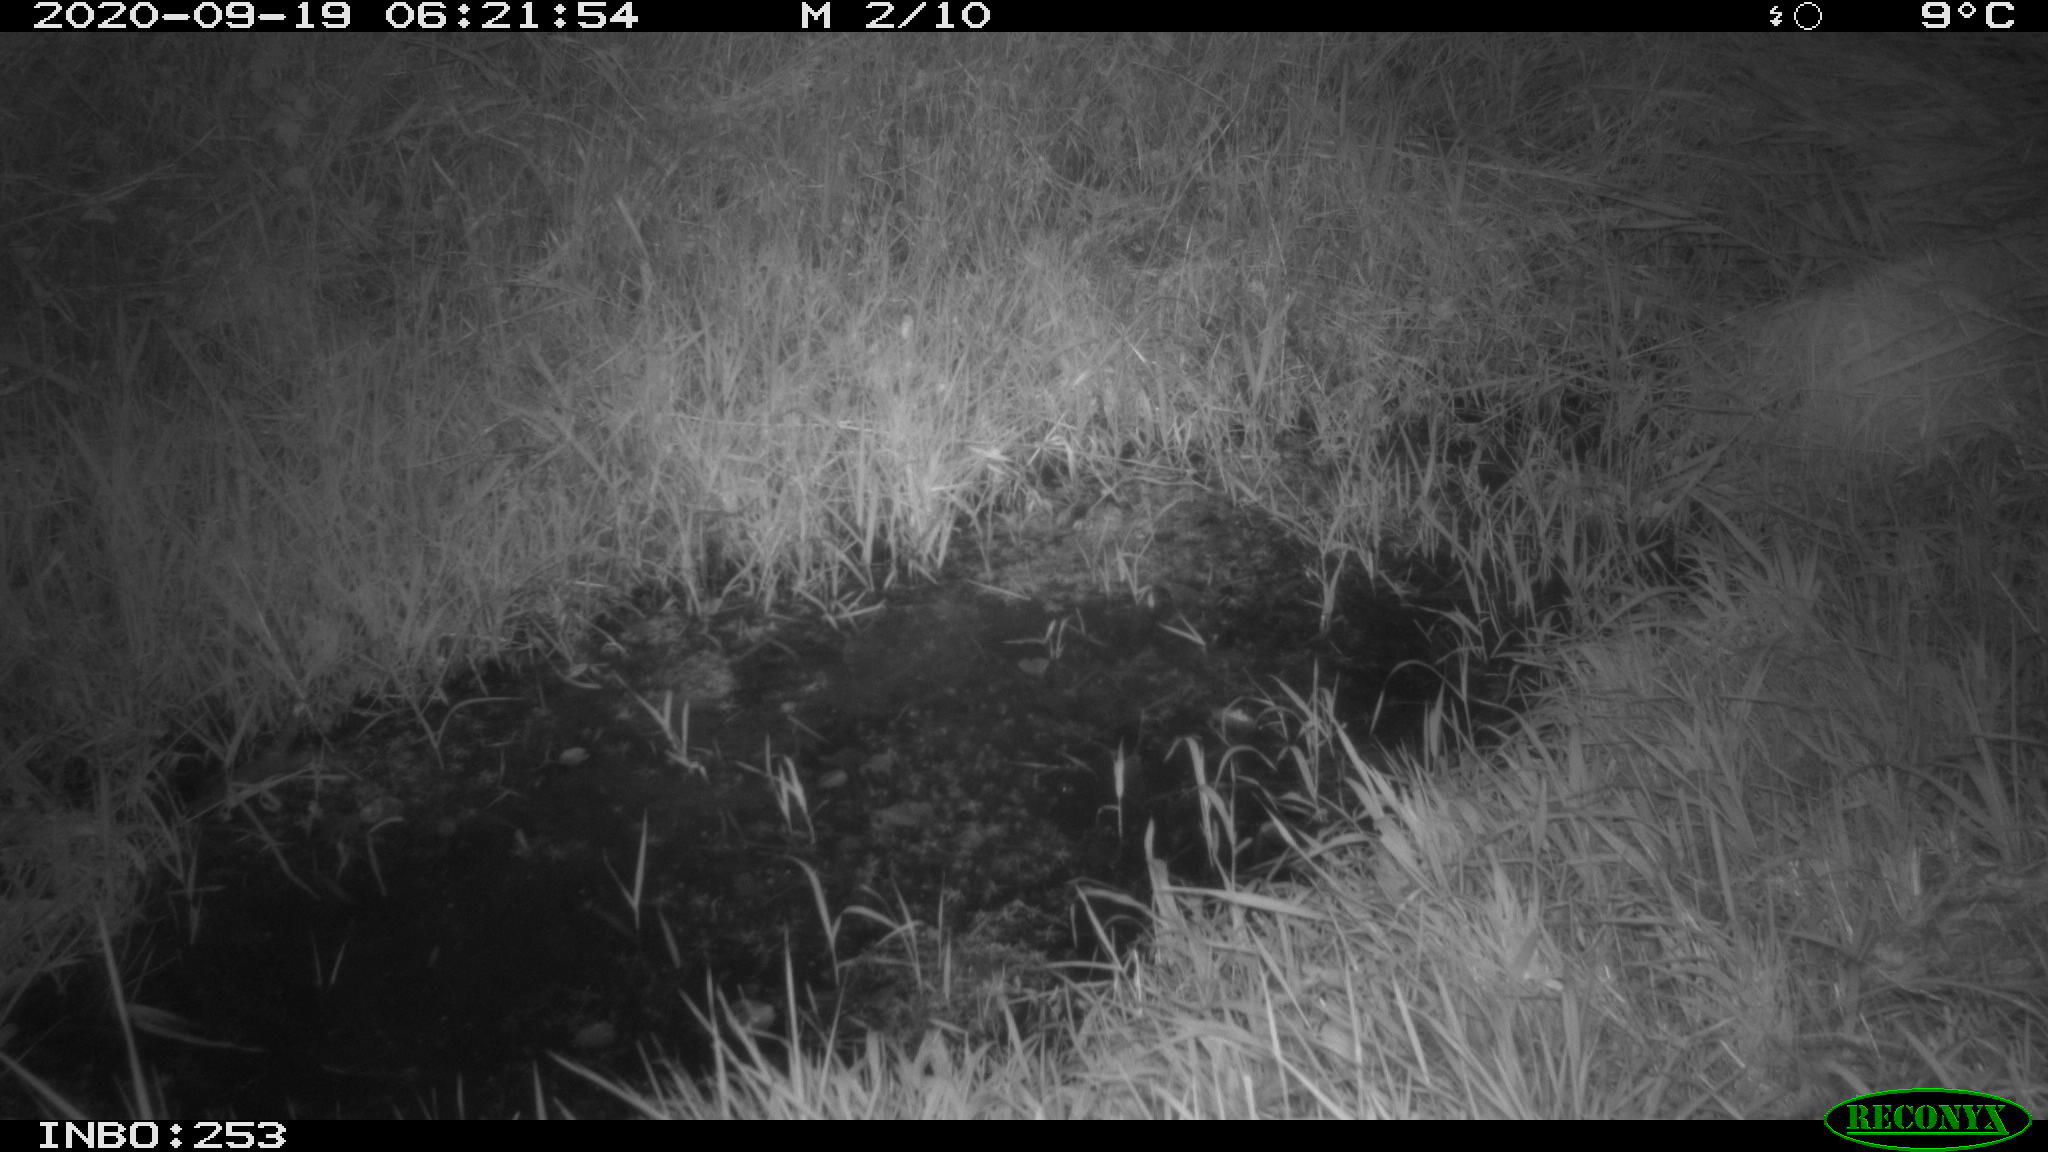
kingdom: Animalia
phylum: Chordata
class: Mammalia
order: Rodentia
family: Muridae
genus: Rattus
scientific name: Rattus norvegicus
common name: Brown rat
